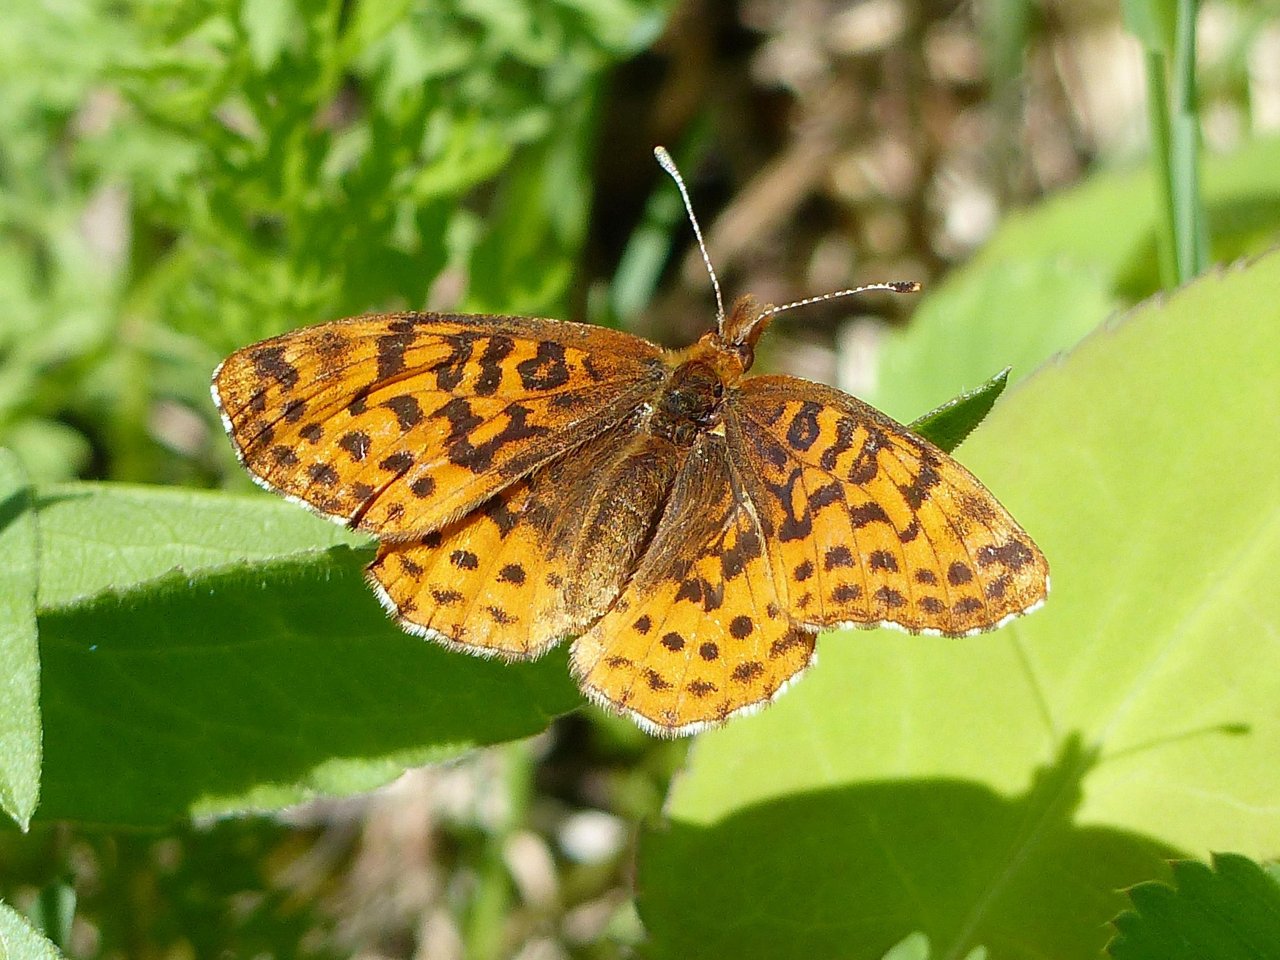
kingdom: Animalia
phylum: Arthropoda
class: Insecta
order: Lepidoptera
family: Nymphalidae
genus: Clossiana
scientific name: Clossiana toddi
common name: Meadow Fritillary
